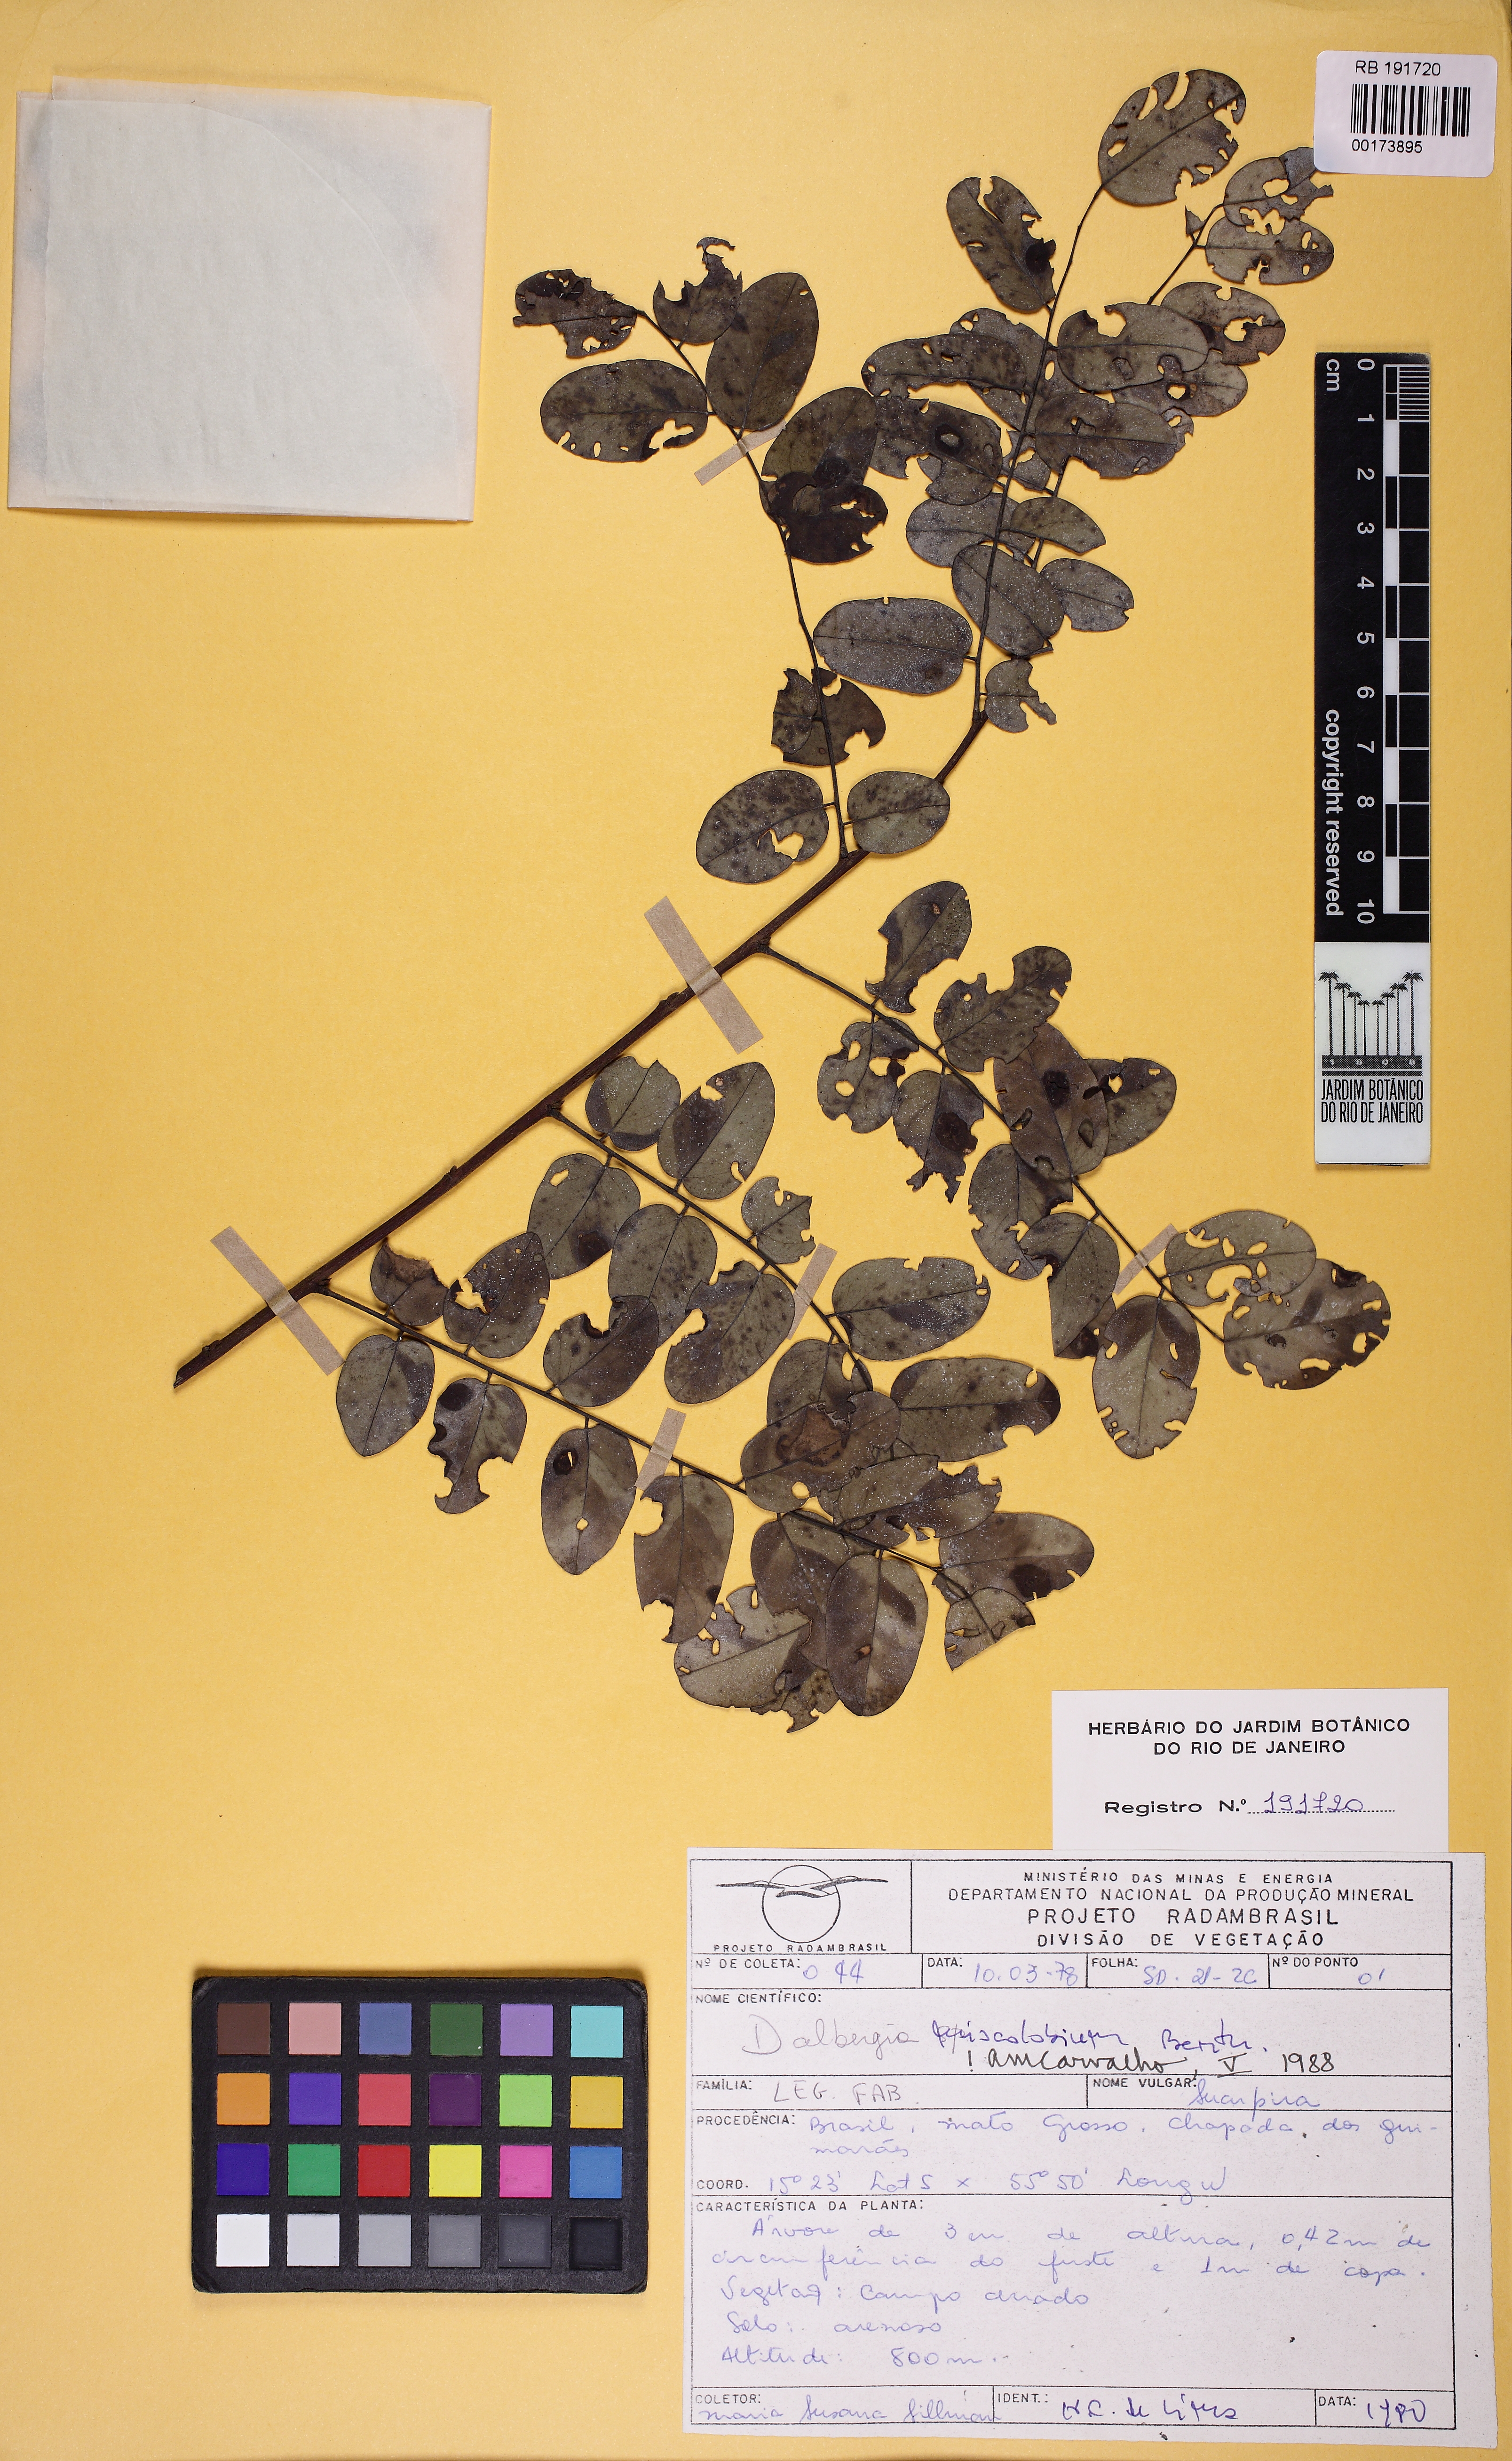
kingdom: Plantae
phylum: Tracheophyta
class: Magnoliopsida
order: Fabales
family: Fabaceae
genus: Dalbergia
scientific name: Dalbergia miscolobium
